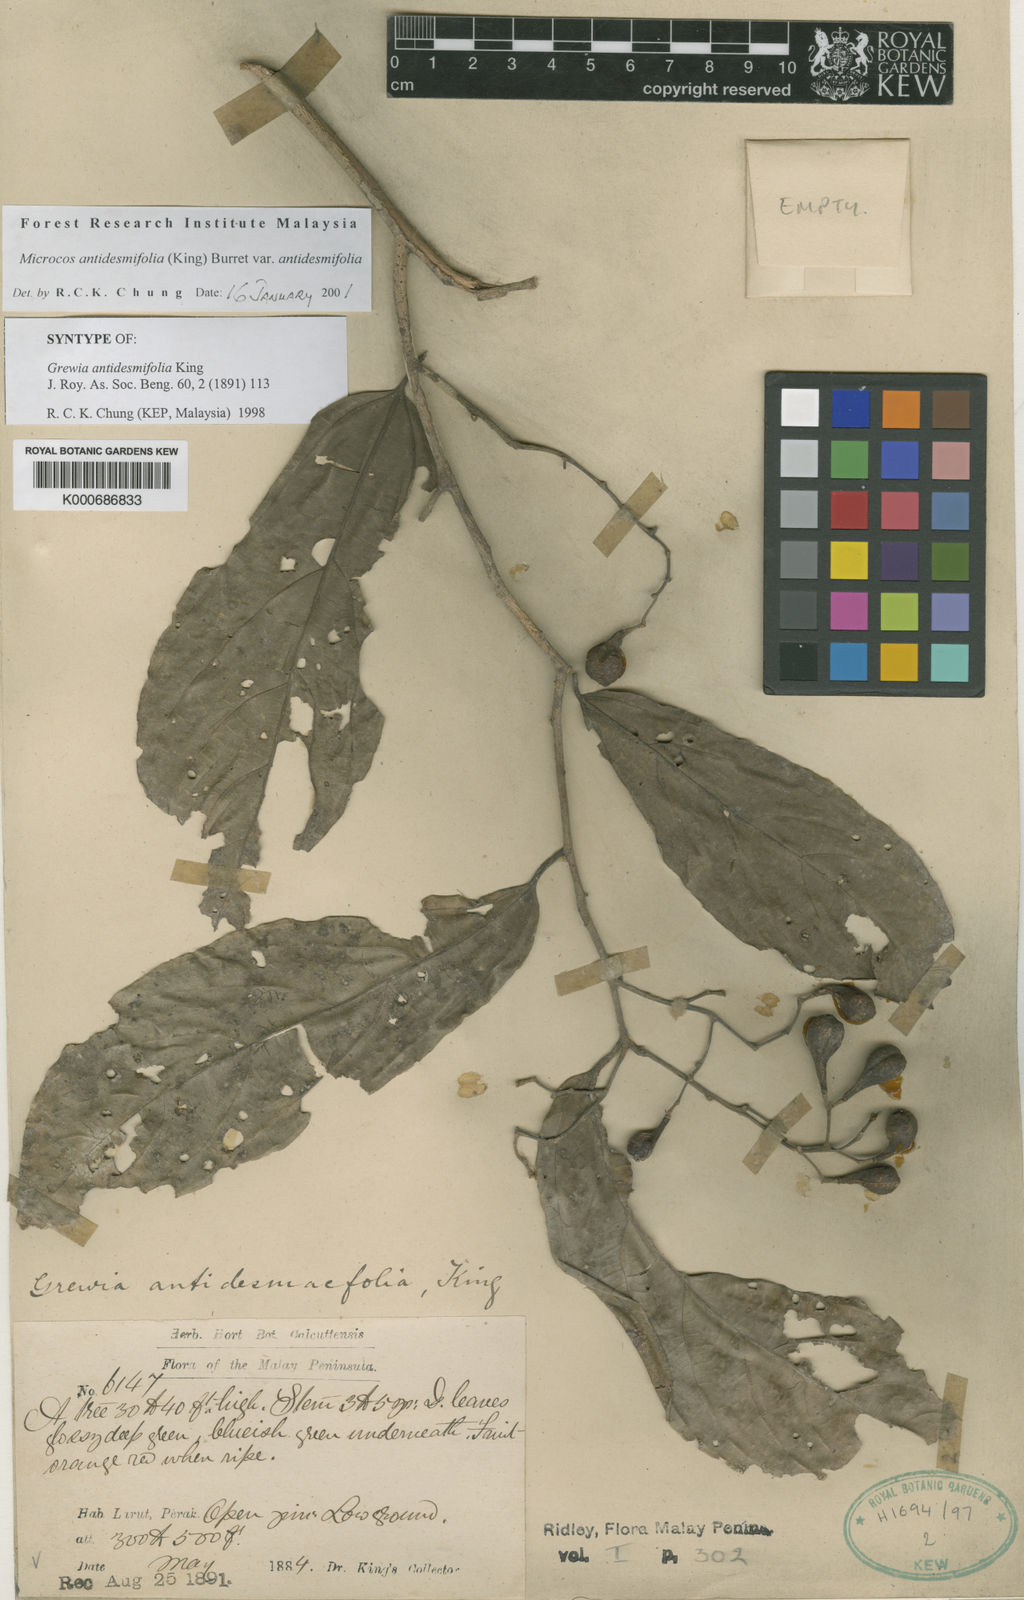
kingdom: Plantae
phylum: Tracheophyta
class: Magnoliopsida
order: Malvales
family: Malvaceae
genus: Microcos
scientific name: Microcos antidesmifolia
